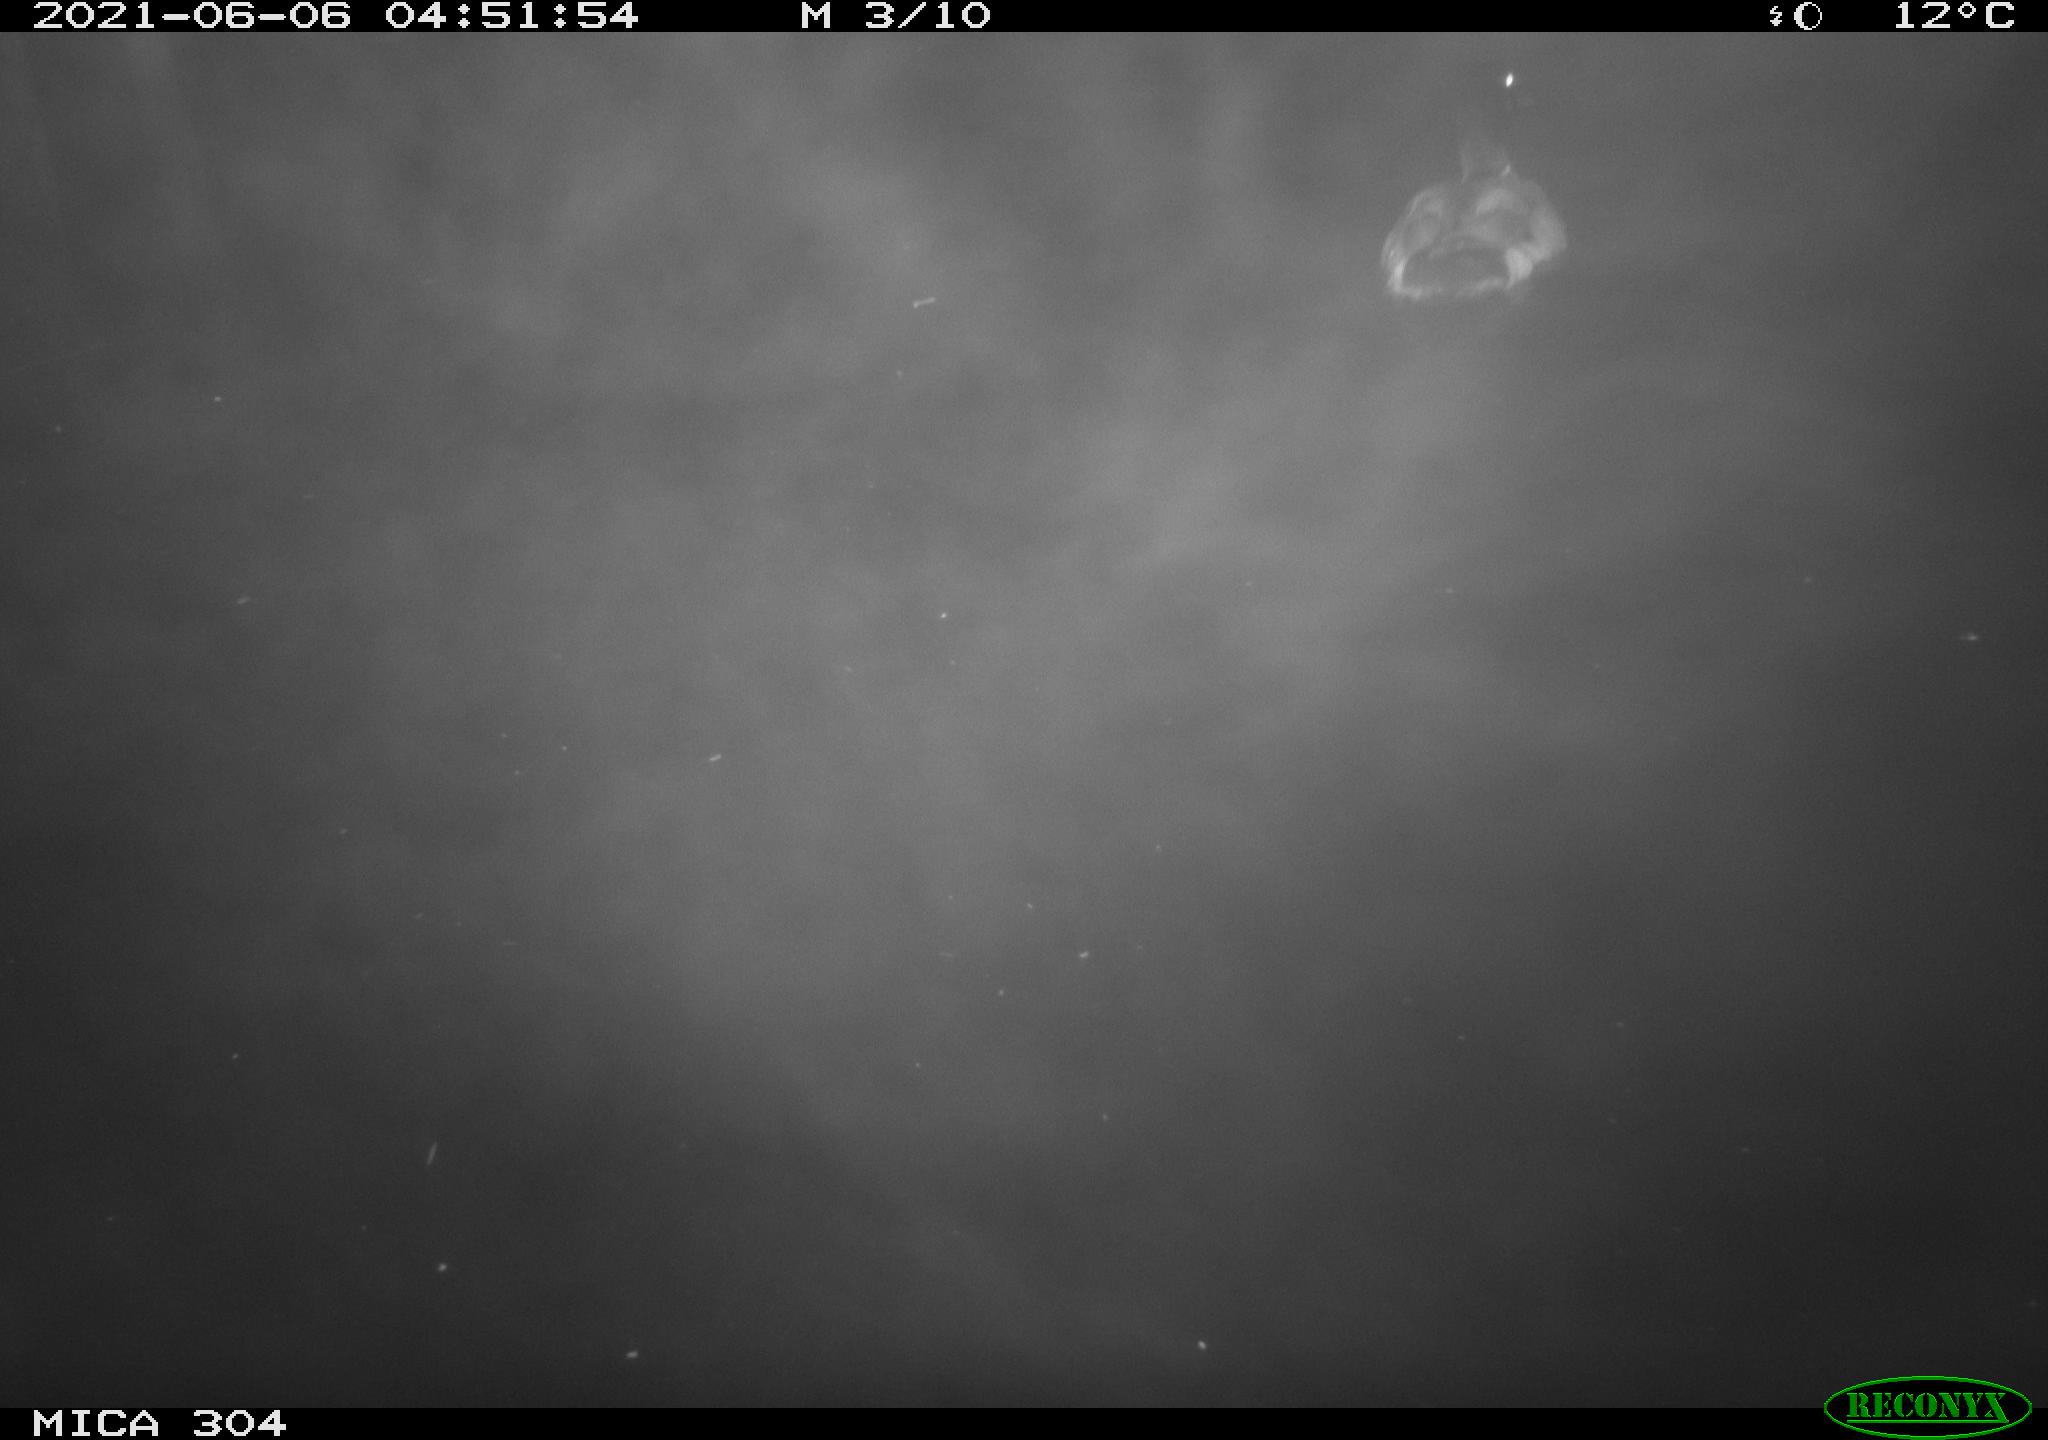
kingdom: Animalia
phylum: Chordata
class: Aves
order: Anseriformes
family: Anatidae
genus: Anas
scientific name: Anas platyrhynchos
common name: Mallard
